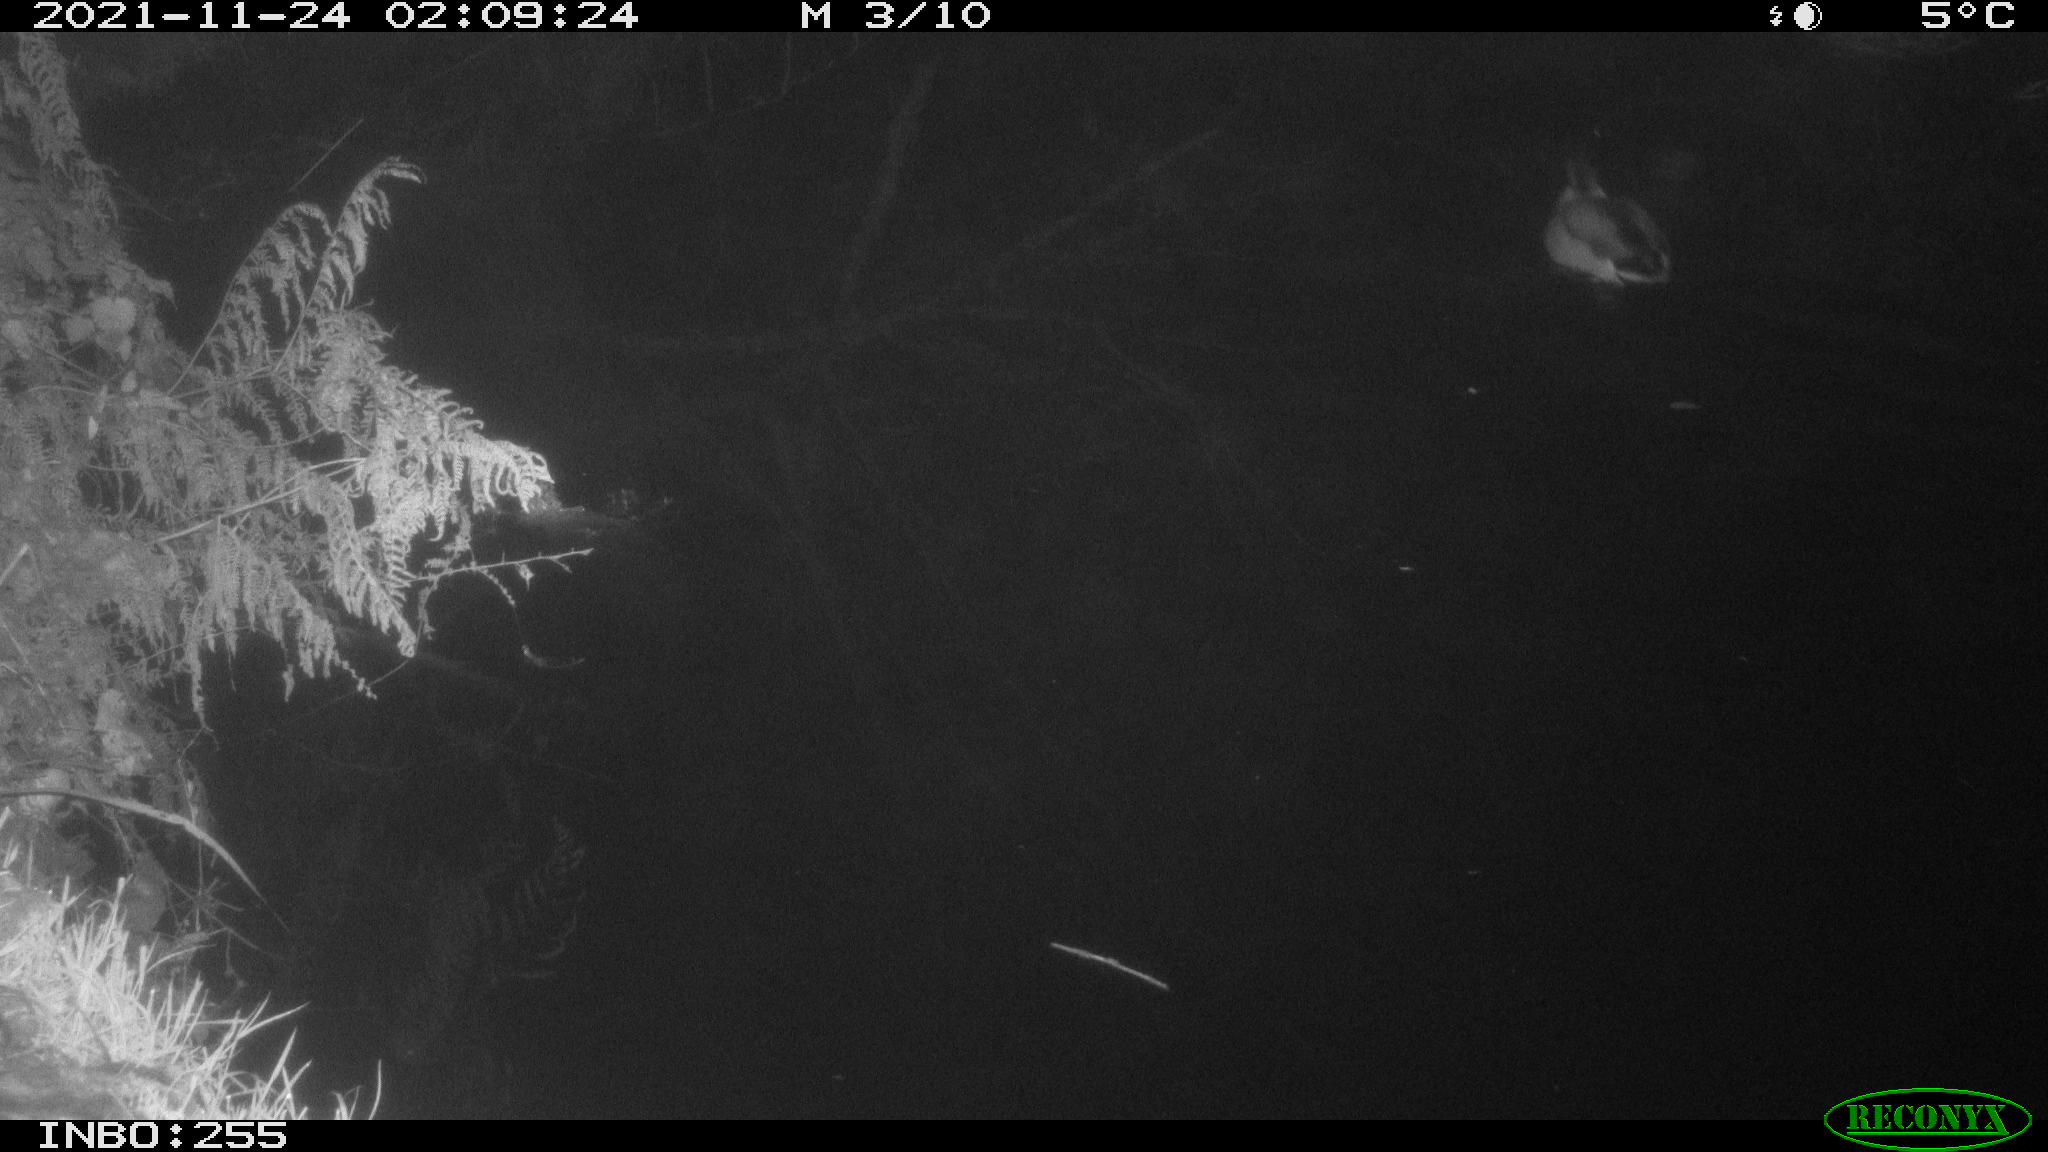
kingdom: Animalia
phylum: Chordata
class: Aves
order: Anseriformes
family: Anatidae
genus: Anas
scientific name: Anas platyrhynchos
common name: Mallard
